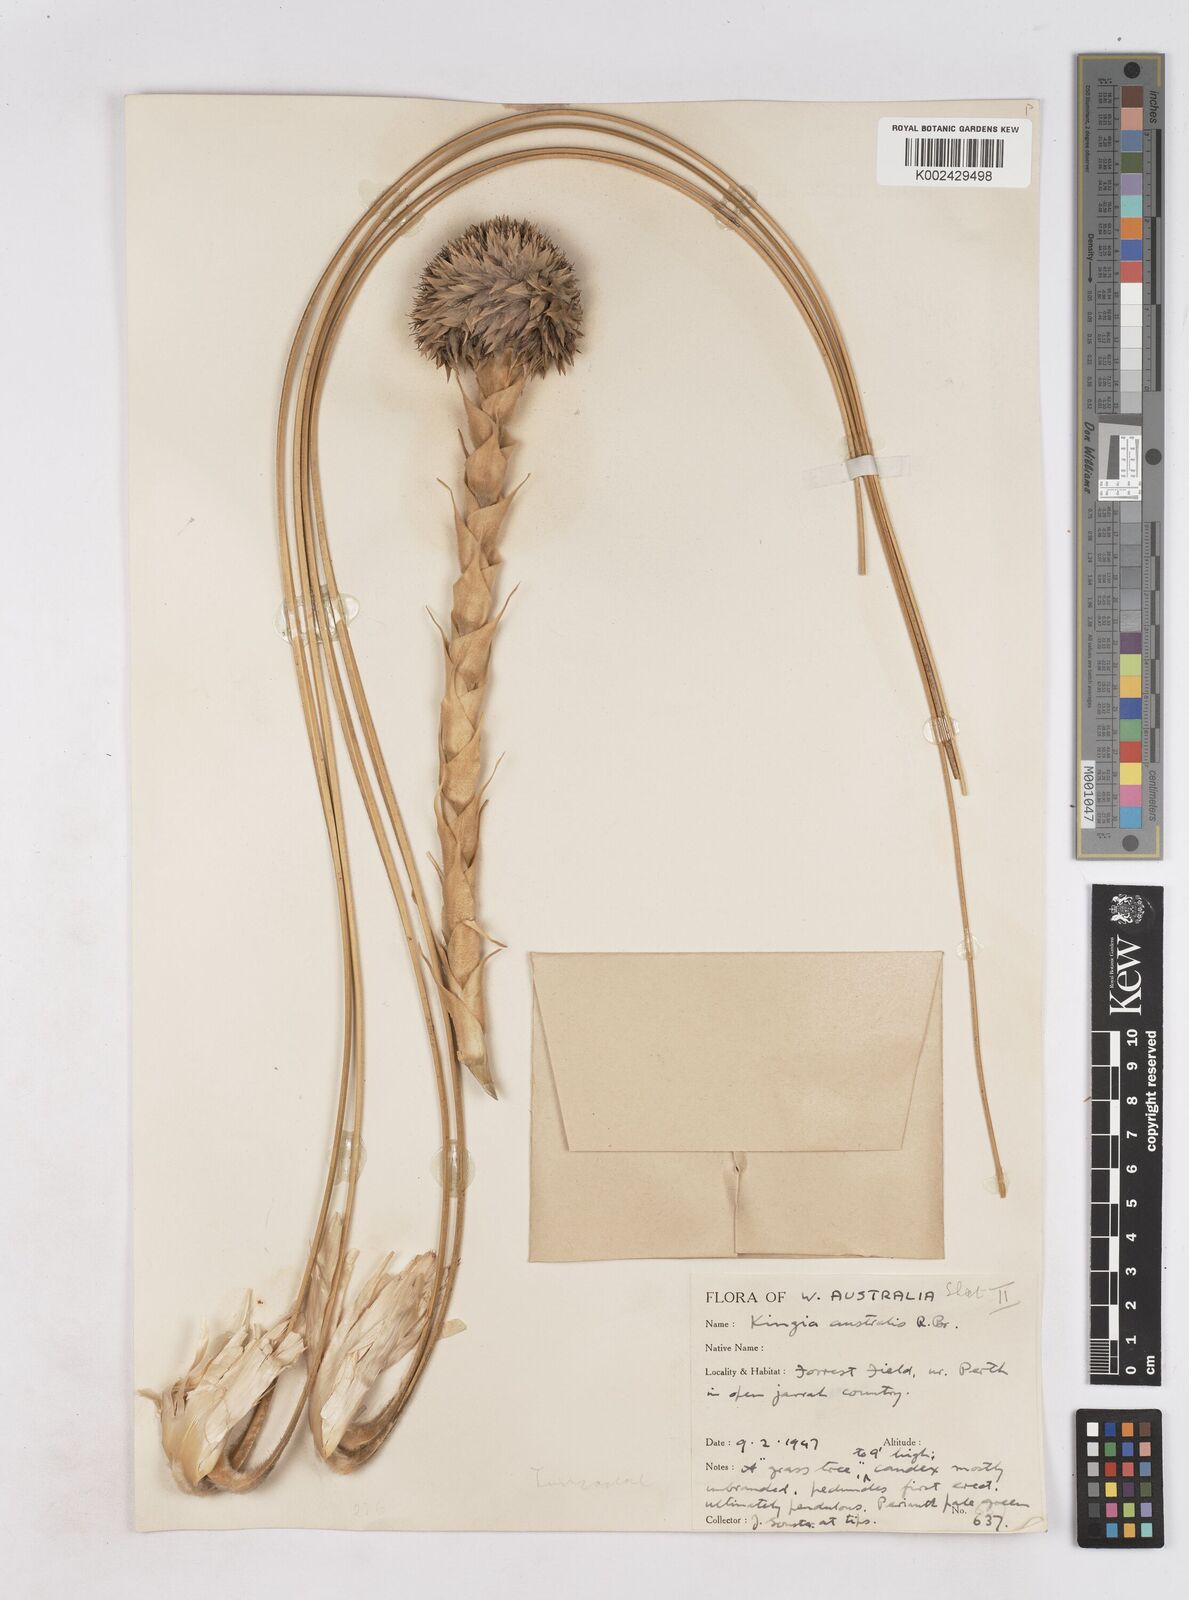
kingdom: Plantae
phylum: Tracheophyta
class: Liliopsida
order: Arecales
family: Dasypogonaceae
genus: Kingia
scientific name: Kingia australis
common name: Black gin
